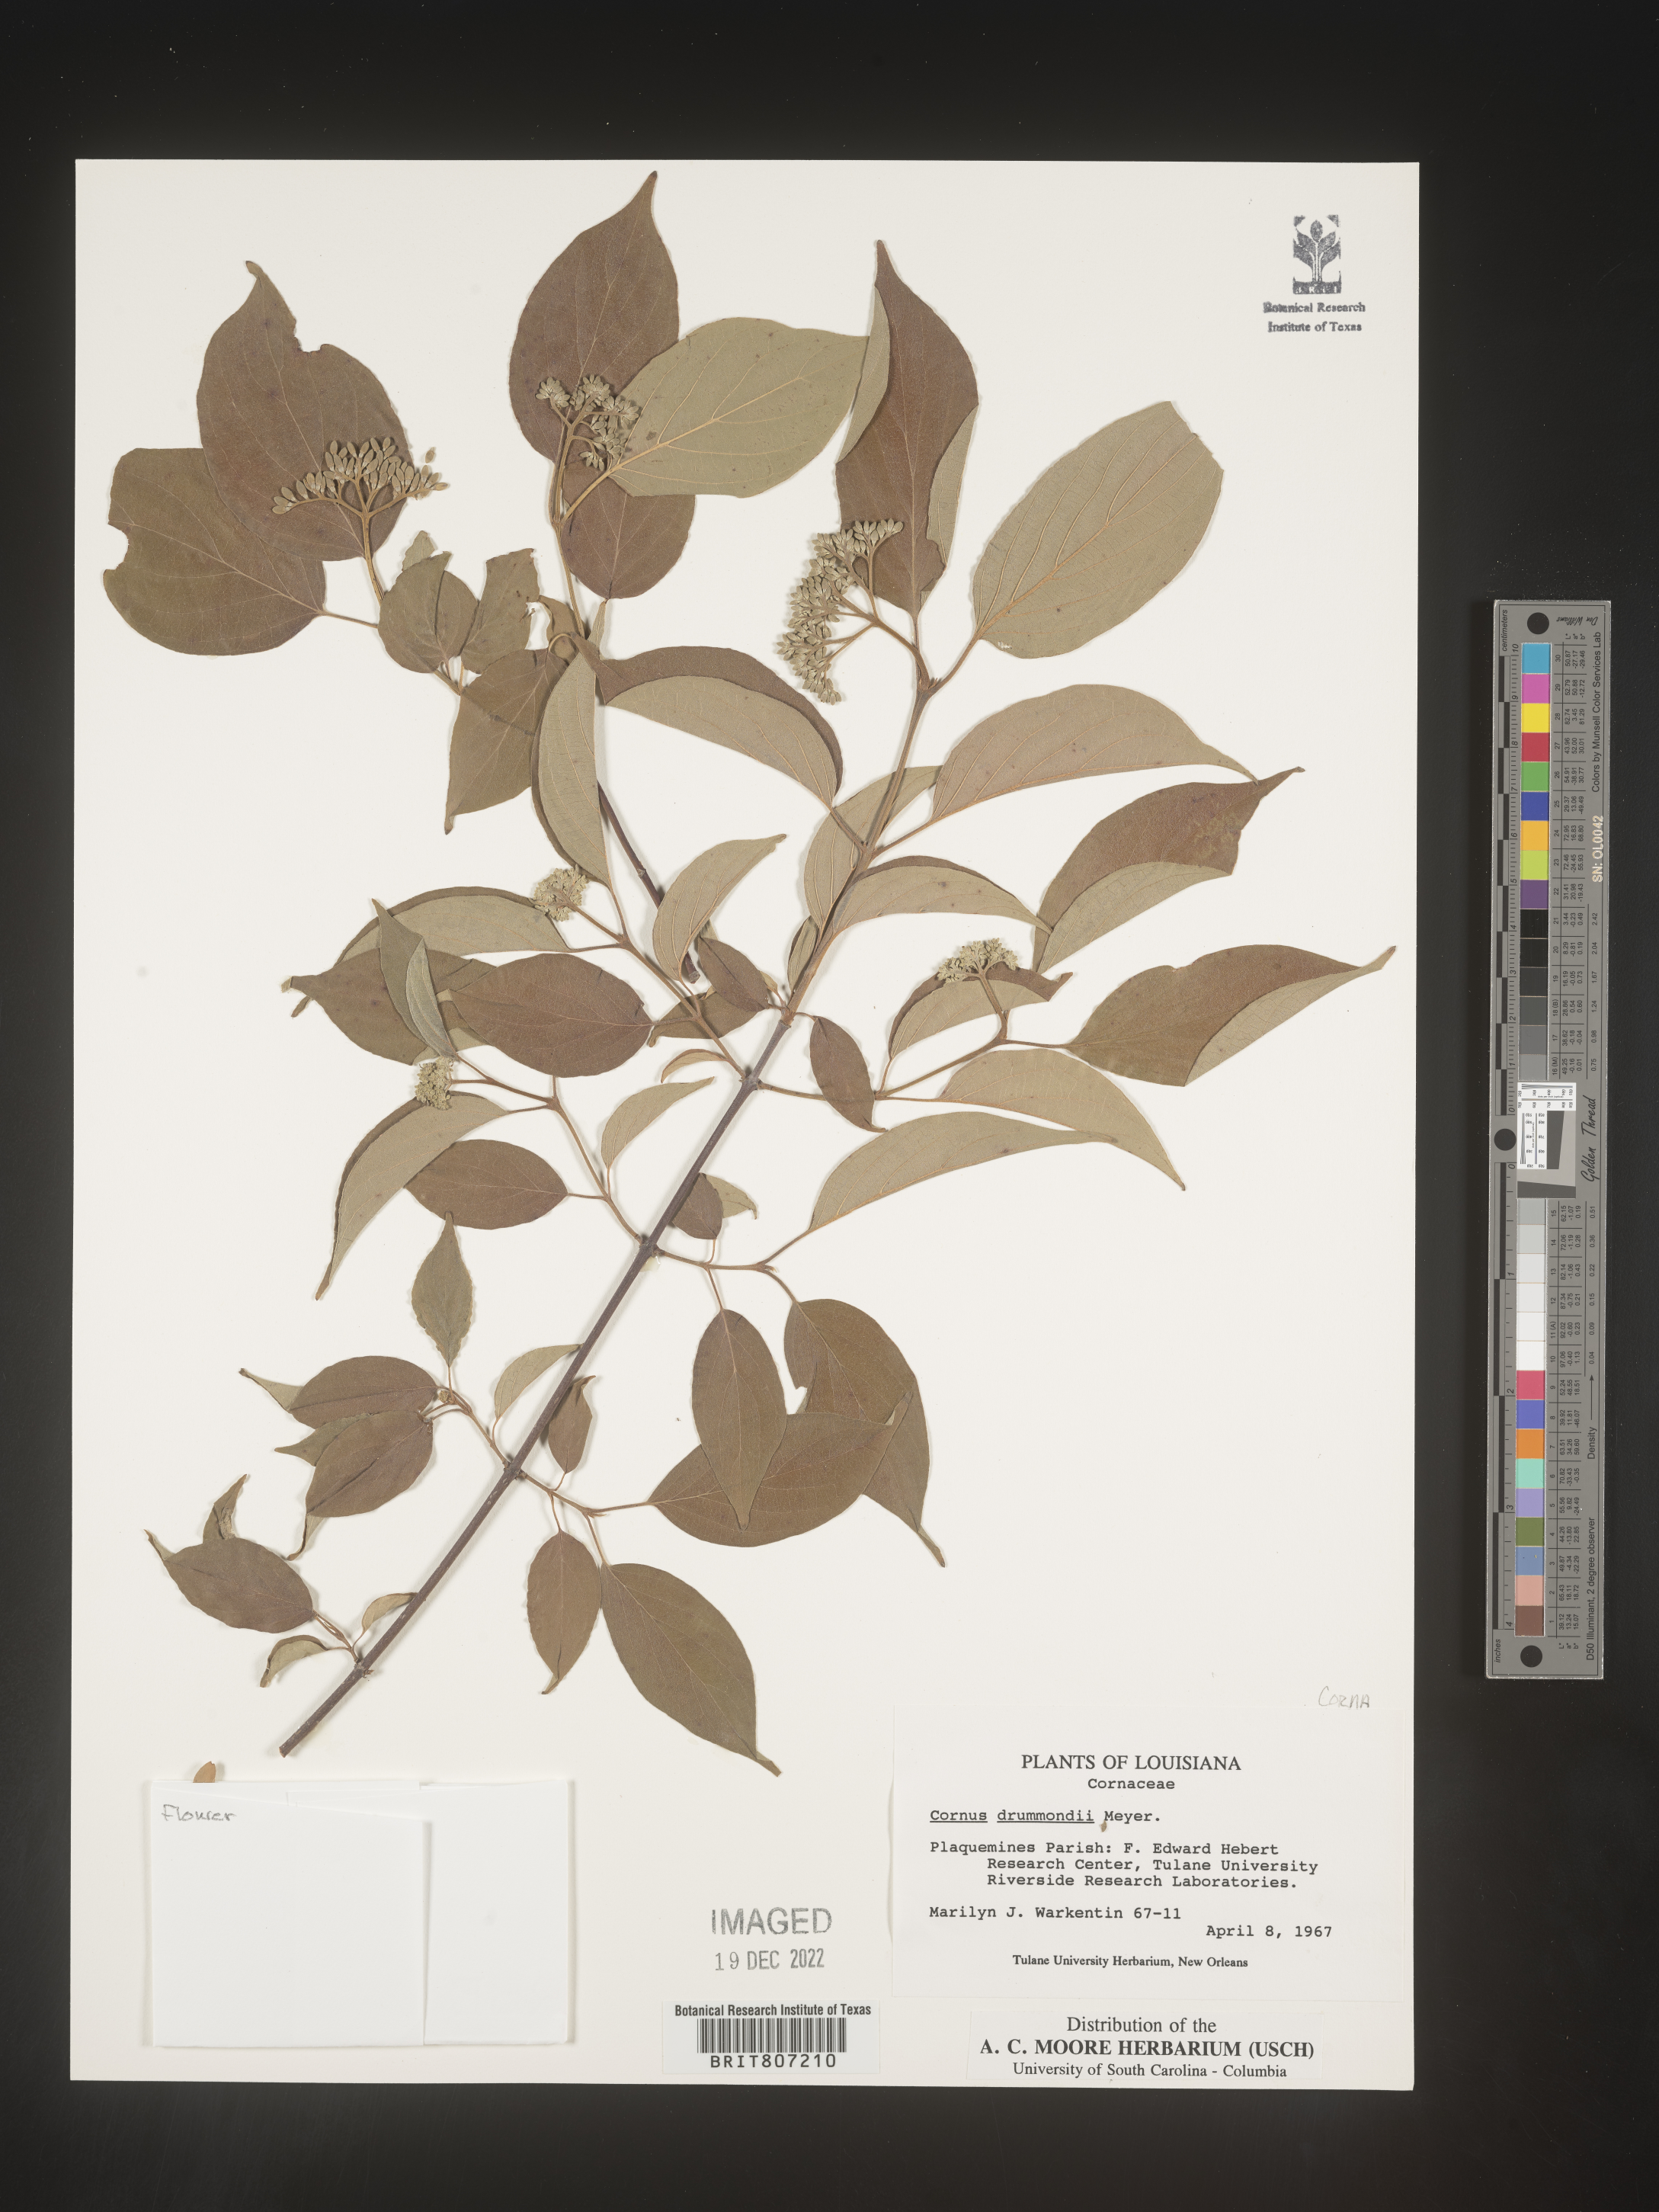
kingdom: Plantae
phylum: Tracheophyta
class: Magnoliopsida
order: Cornales
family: Cornaceae
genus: Cornus
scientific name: Cornus drummondii
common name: Rough-leaf dogwood
